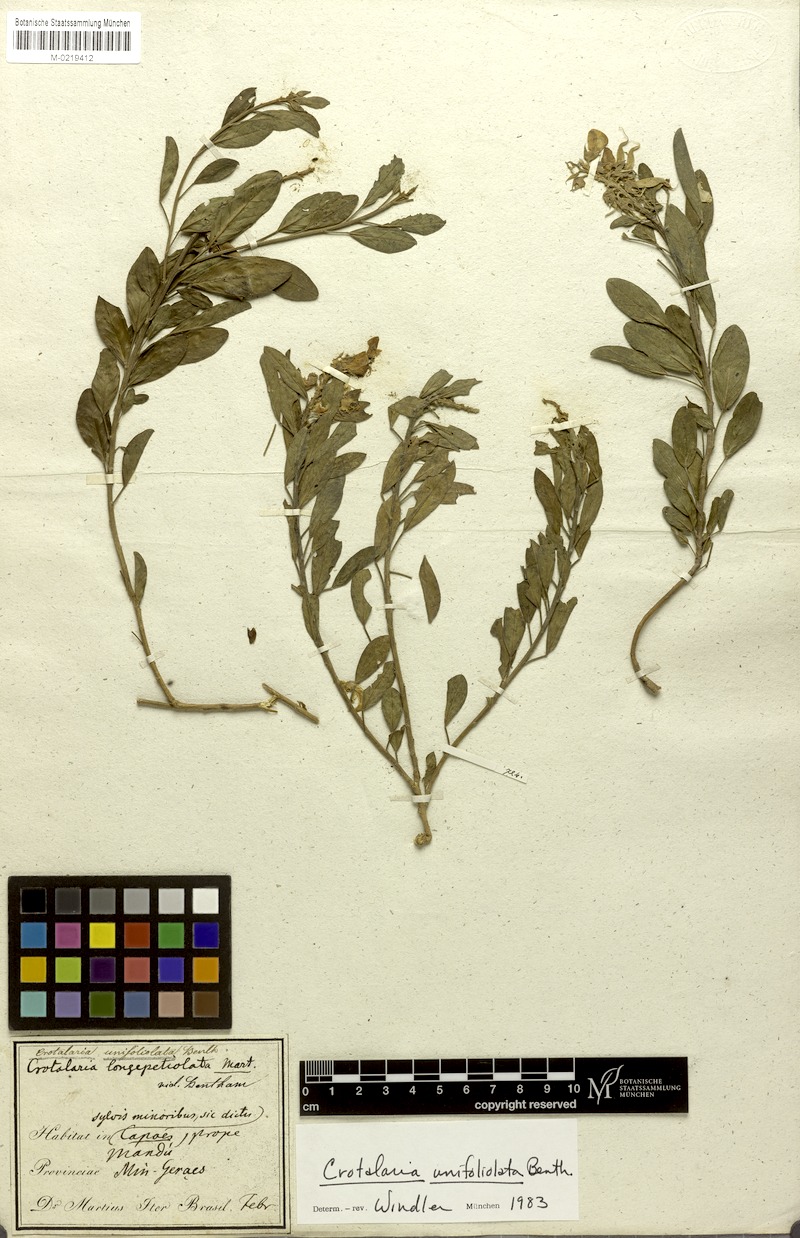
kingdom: Plantae
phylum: Tracheophyta
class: Magnoliopsida
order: Fabales
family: Fabaceae
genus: Crotalaria
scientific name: Crotalaria unifoliolata
